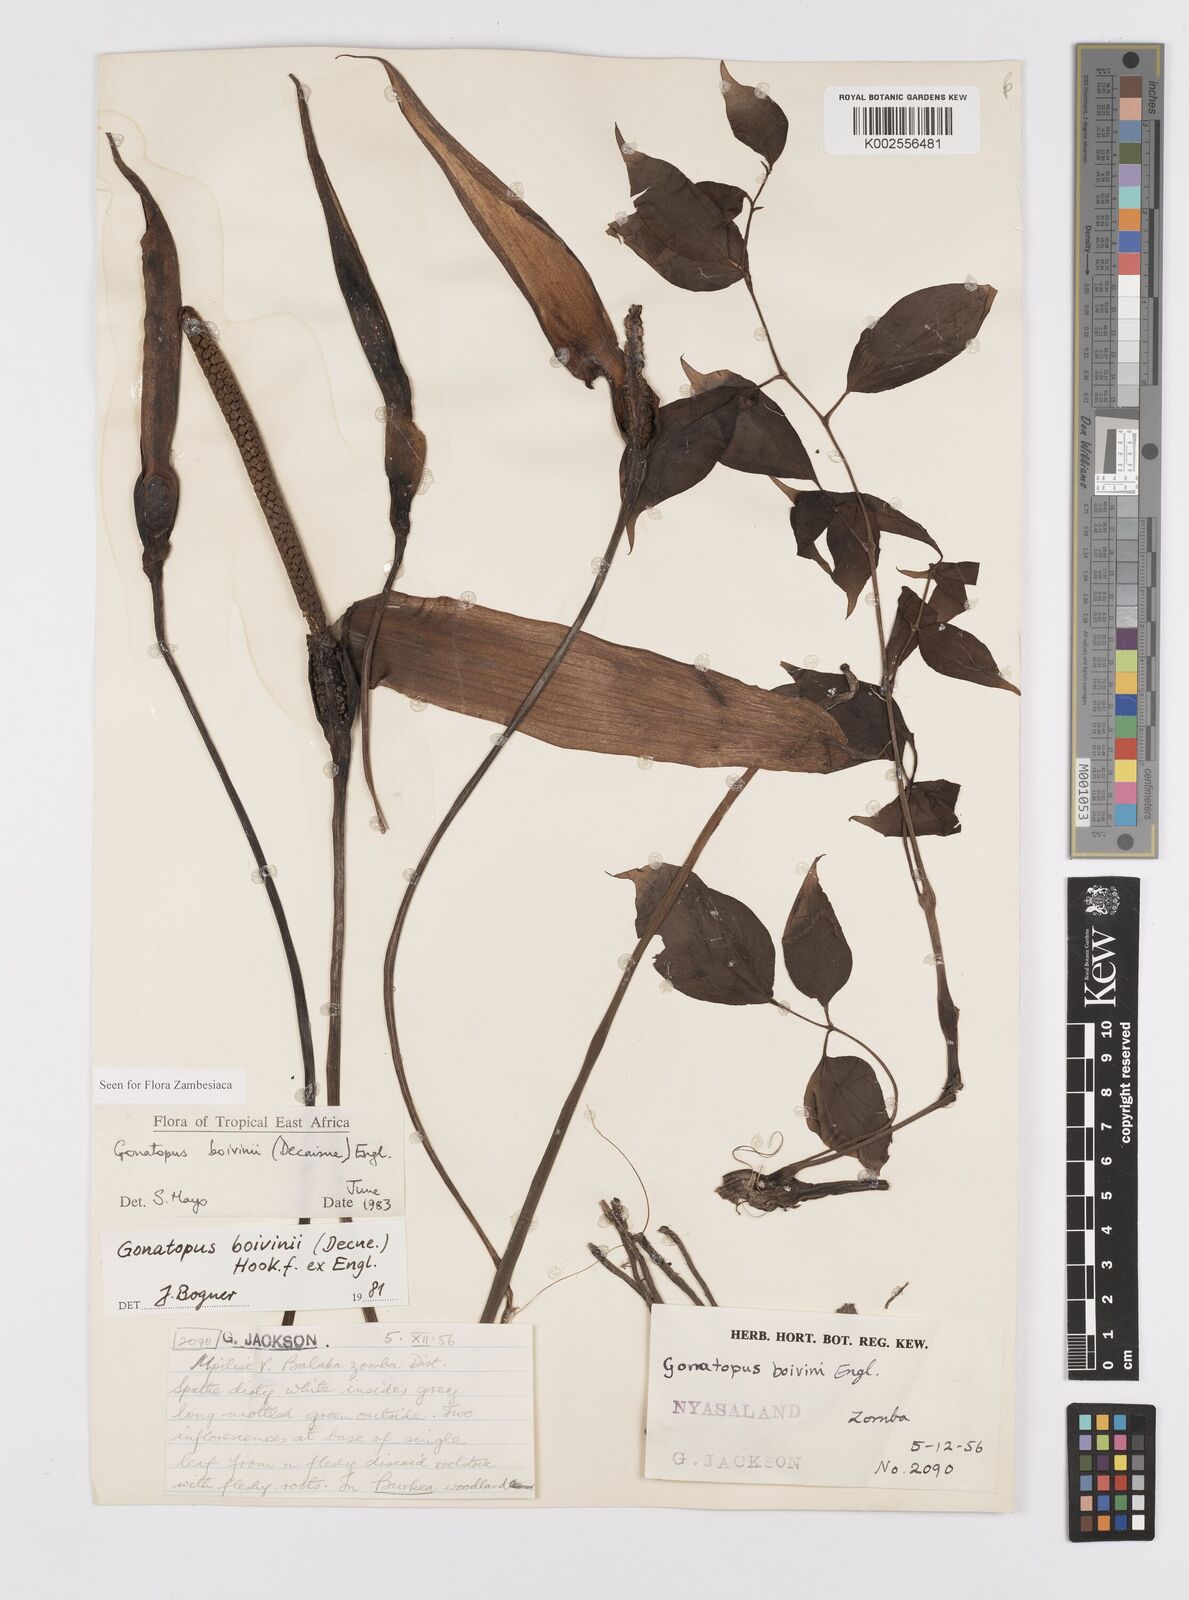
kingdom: Plantae
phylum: Tracheophyta
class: Liliopsida
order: Alismatales
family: Araceae
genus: Gonatopus
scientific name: Gonatopus boivinii
